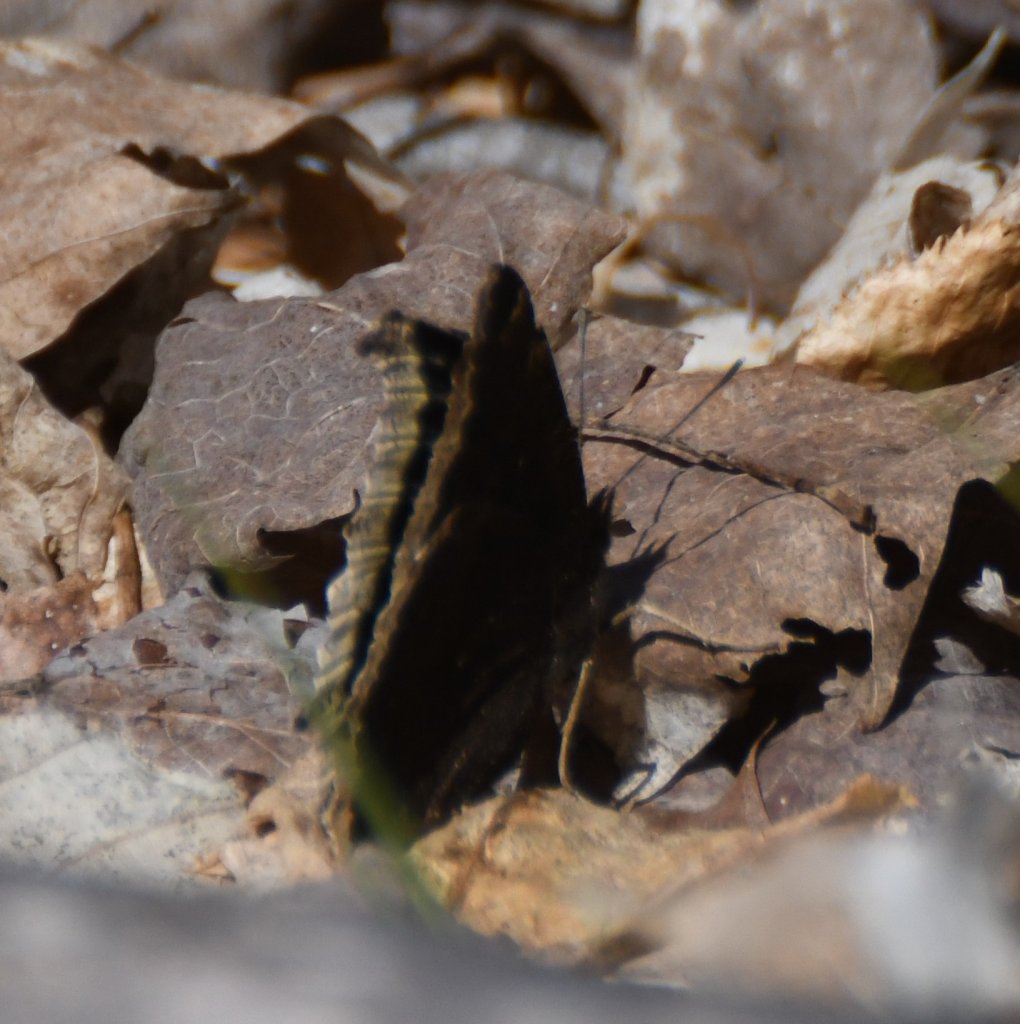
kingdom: Animalia
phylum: Arthropoda
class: Insecta
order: Lepidoptera
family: Nymphalidae
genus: Nymphalis
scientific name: Nymphalis antiopa
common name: Mourning Cloak
